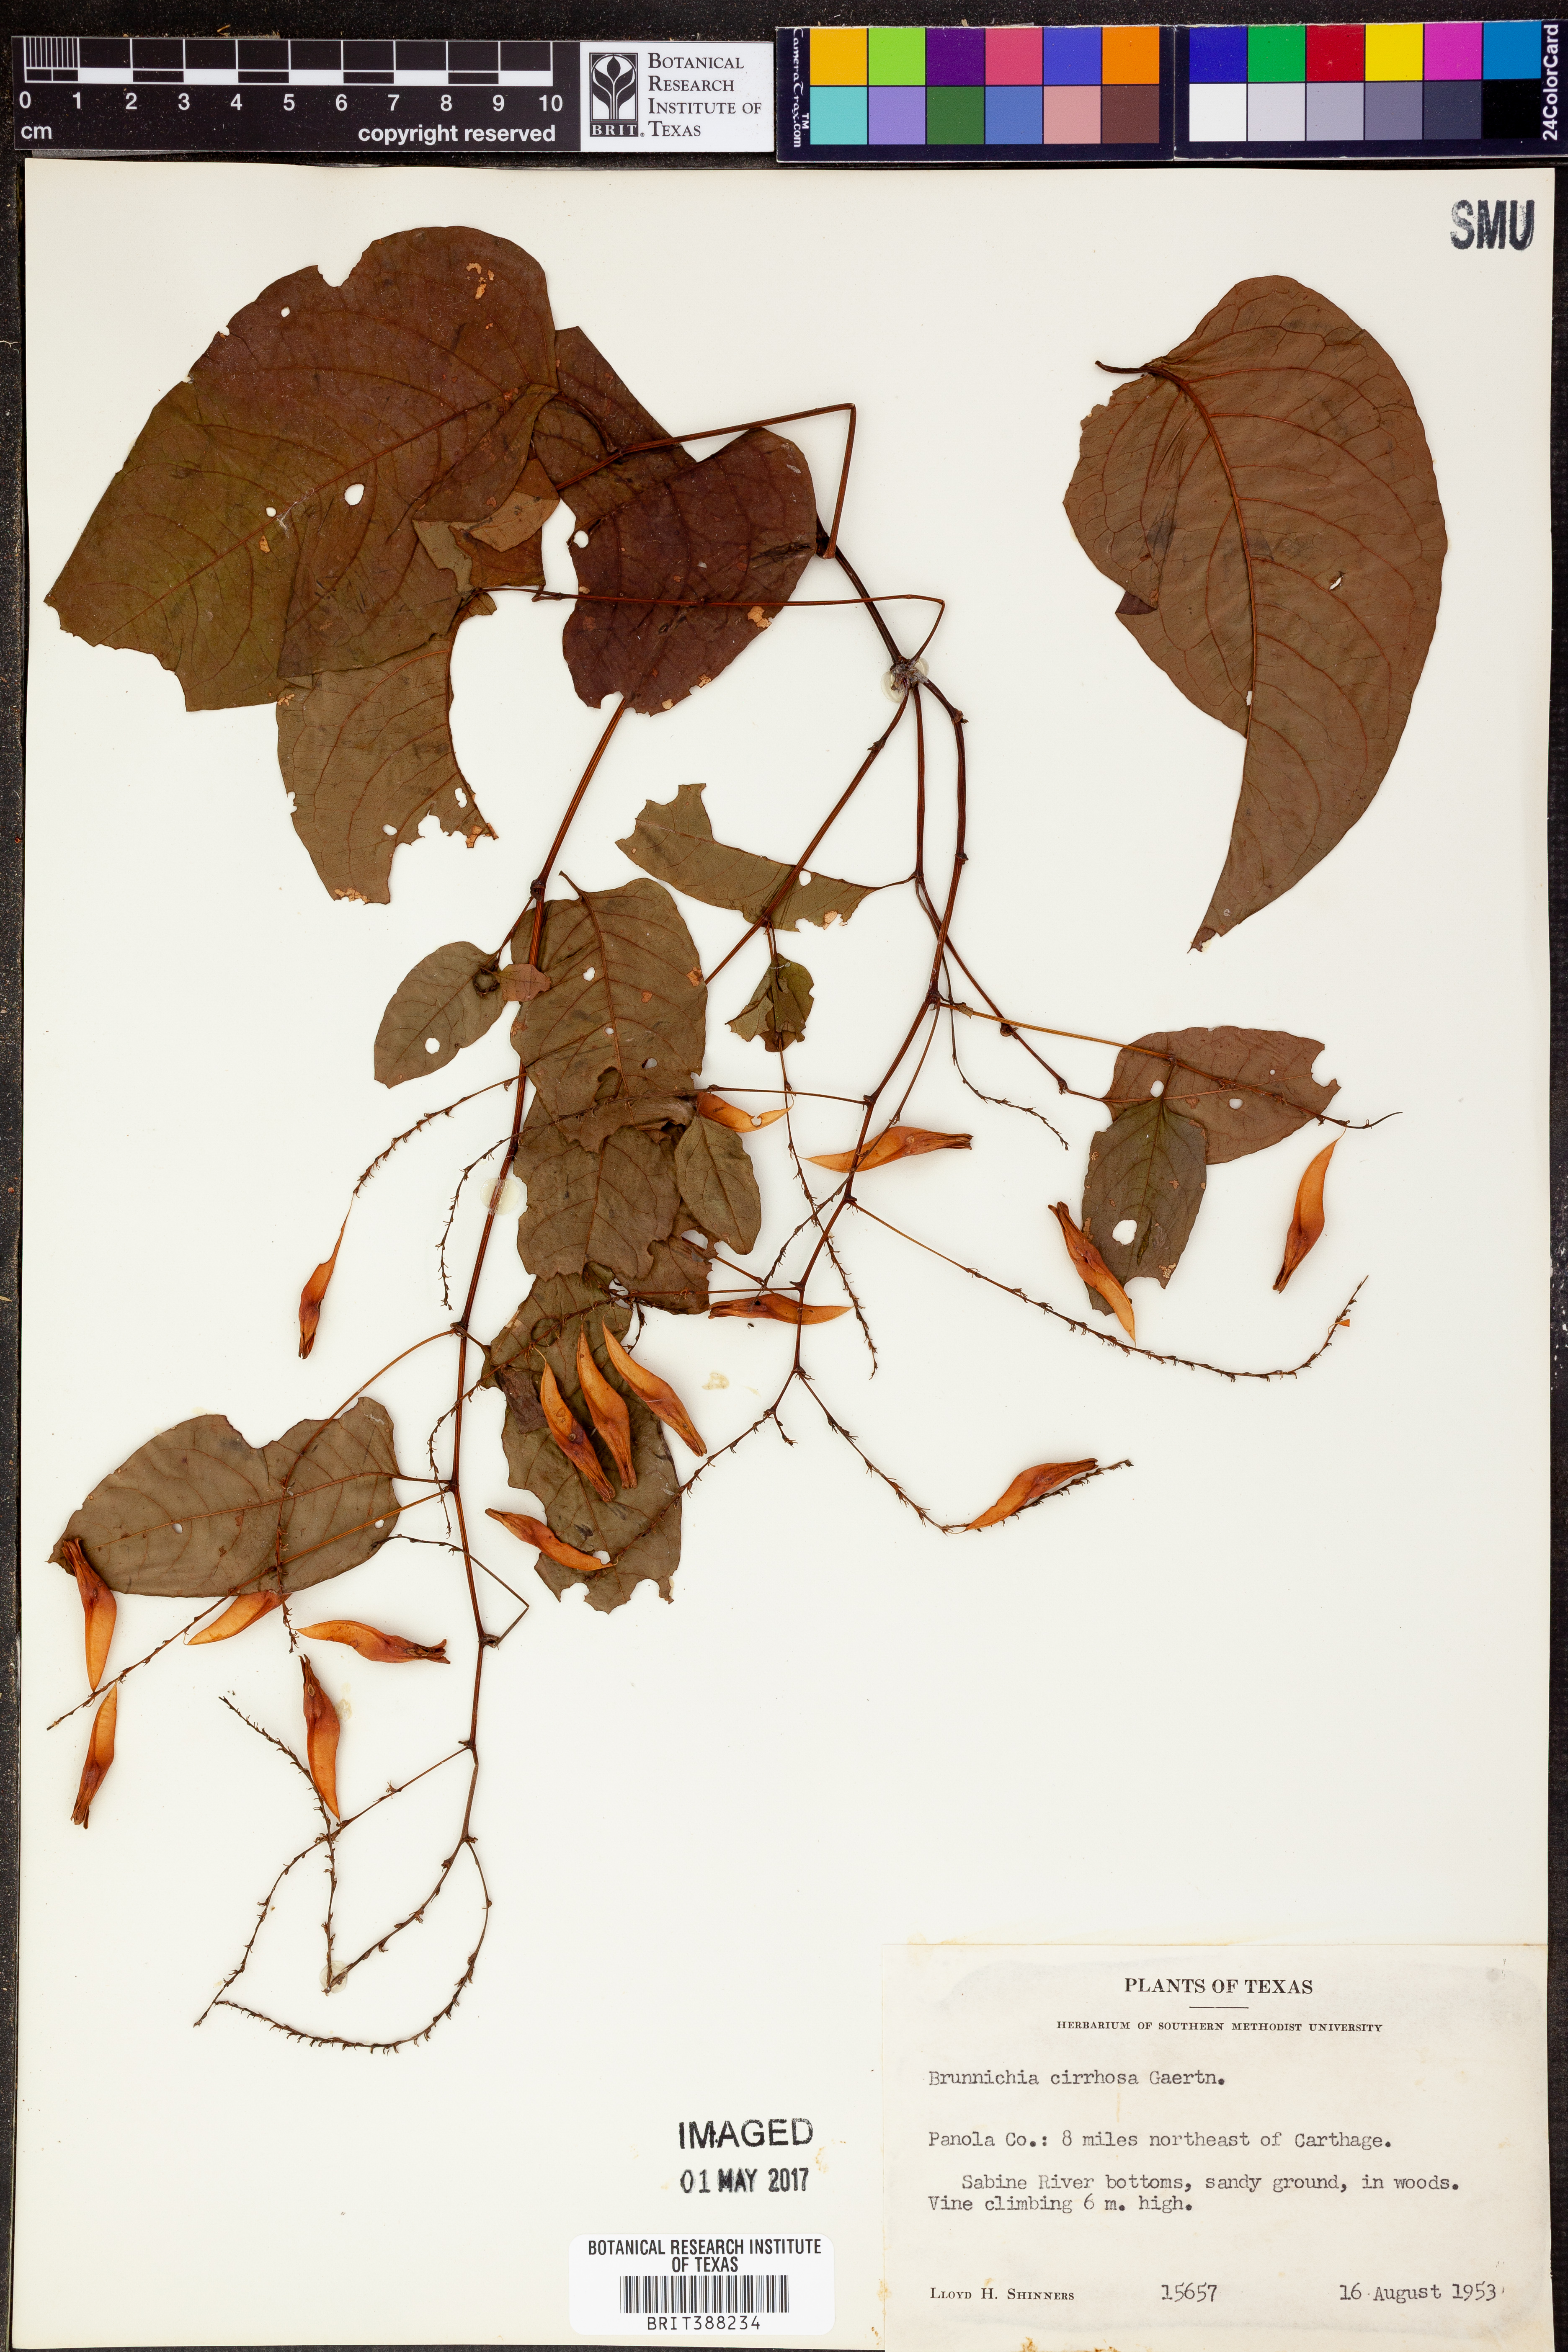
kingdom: Plantae
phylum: Tracheophyta
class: Magnoliopsida
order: Caryophyllales
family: Polygonaceae
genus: Brunnichia
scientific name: Brunnichia ovata
